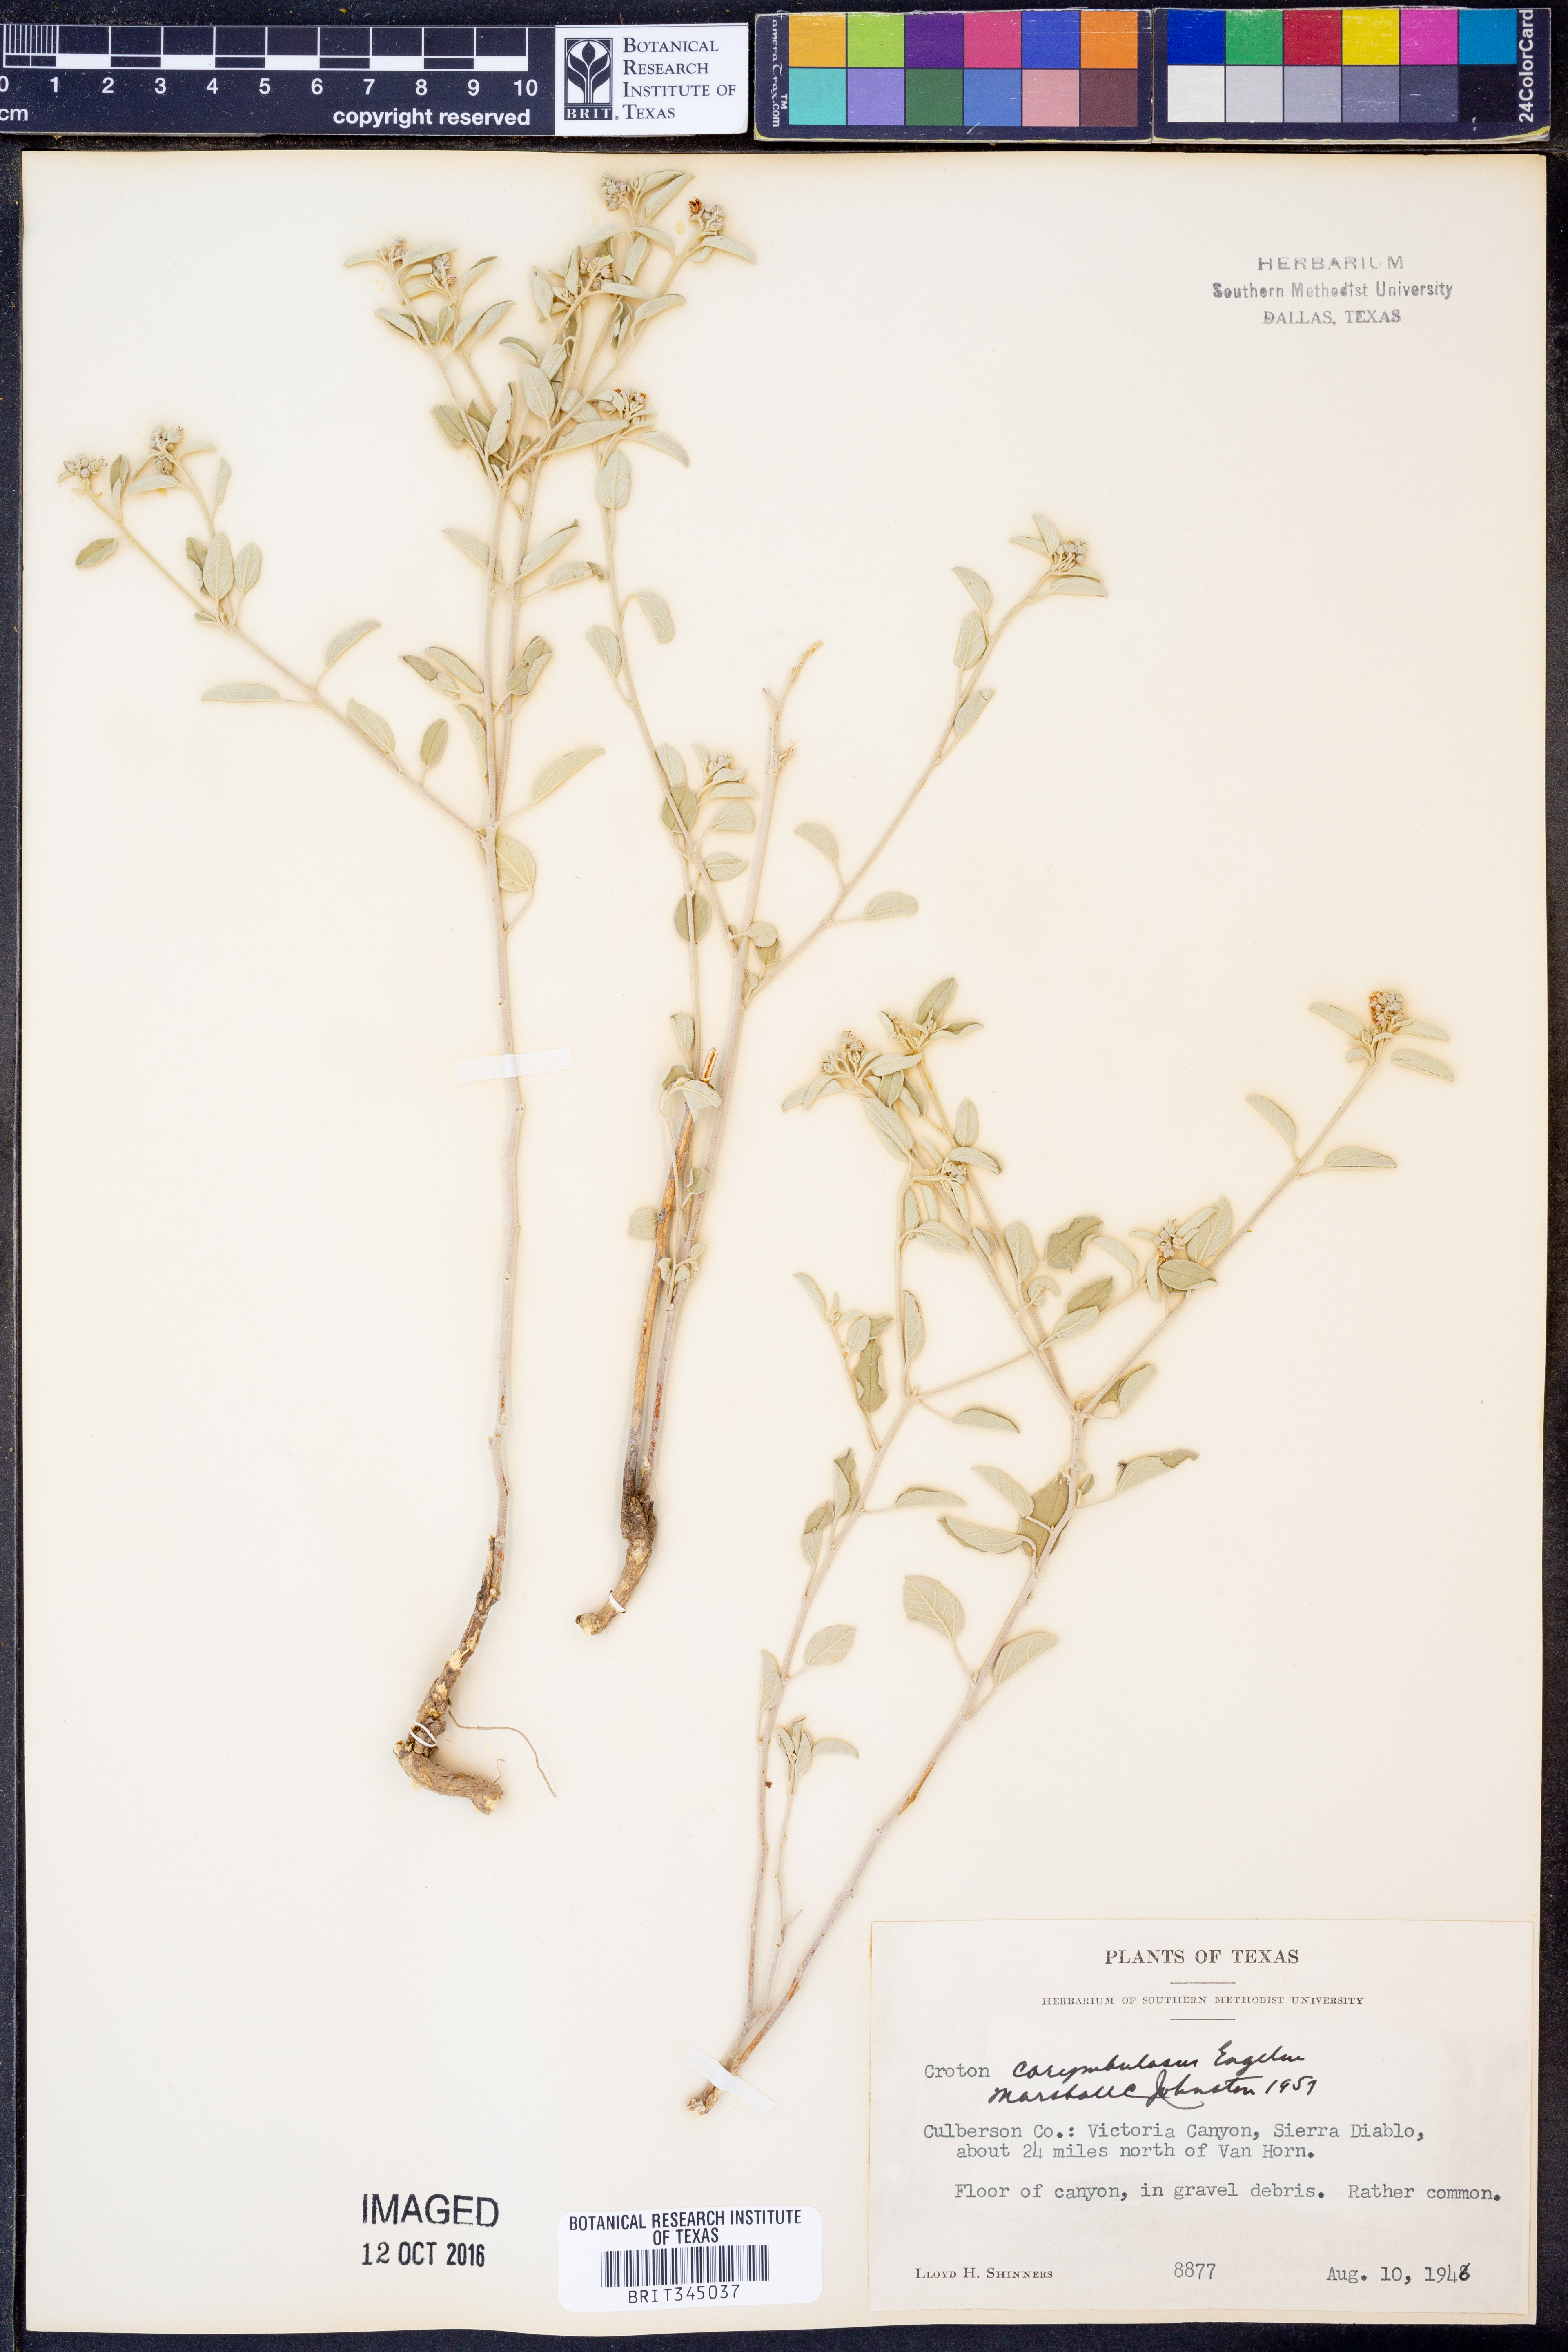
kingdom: Plantae
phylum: Tracheophyta
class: Magnoliopsida
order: Malpighiales
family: Euphorbiaceae
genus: Croton
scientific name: Croton pottsii
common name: Leatherweed
